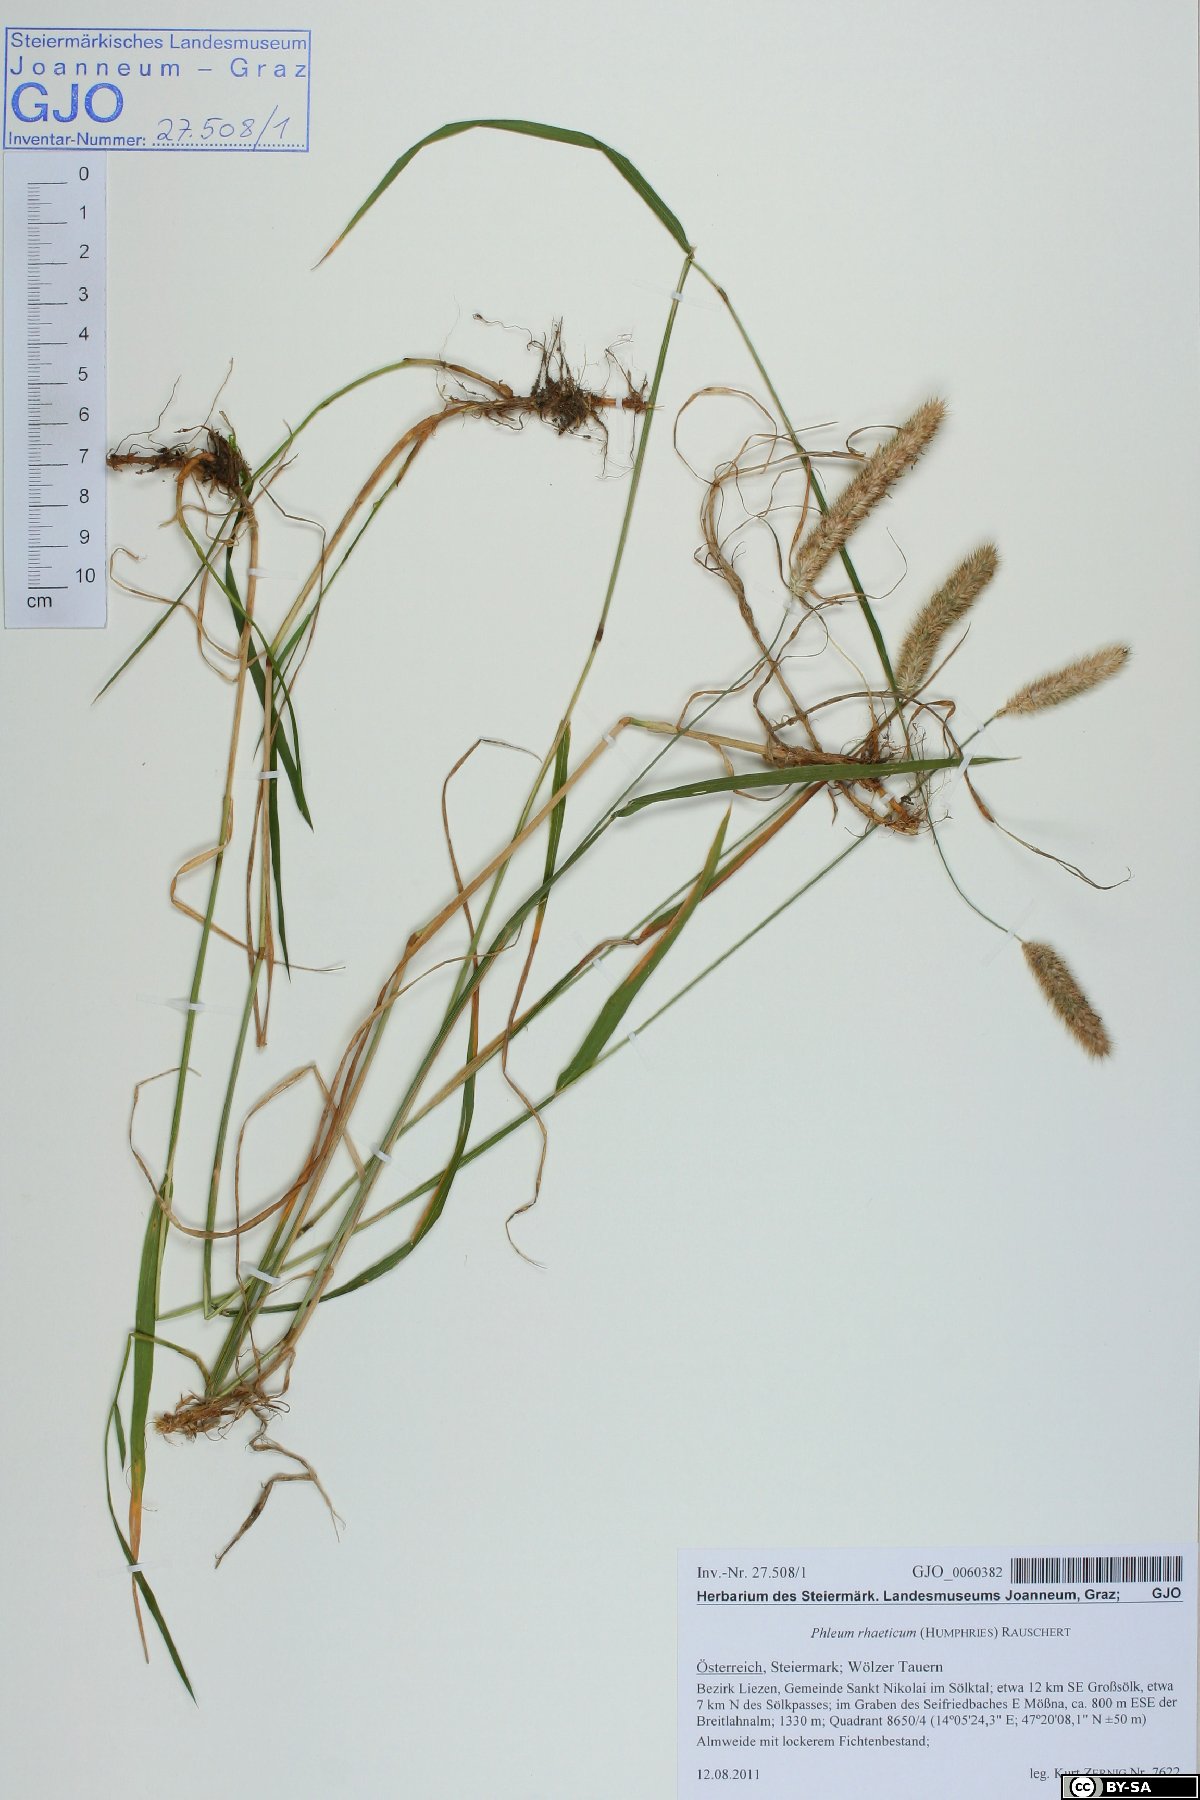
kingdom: Plantae
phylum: Tracheophyta
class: Liliopsida
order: Poales
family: Poaceae
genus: Phleum
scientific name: Phleum alpinum
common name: Alpine cat's-tail
